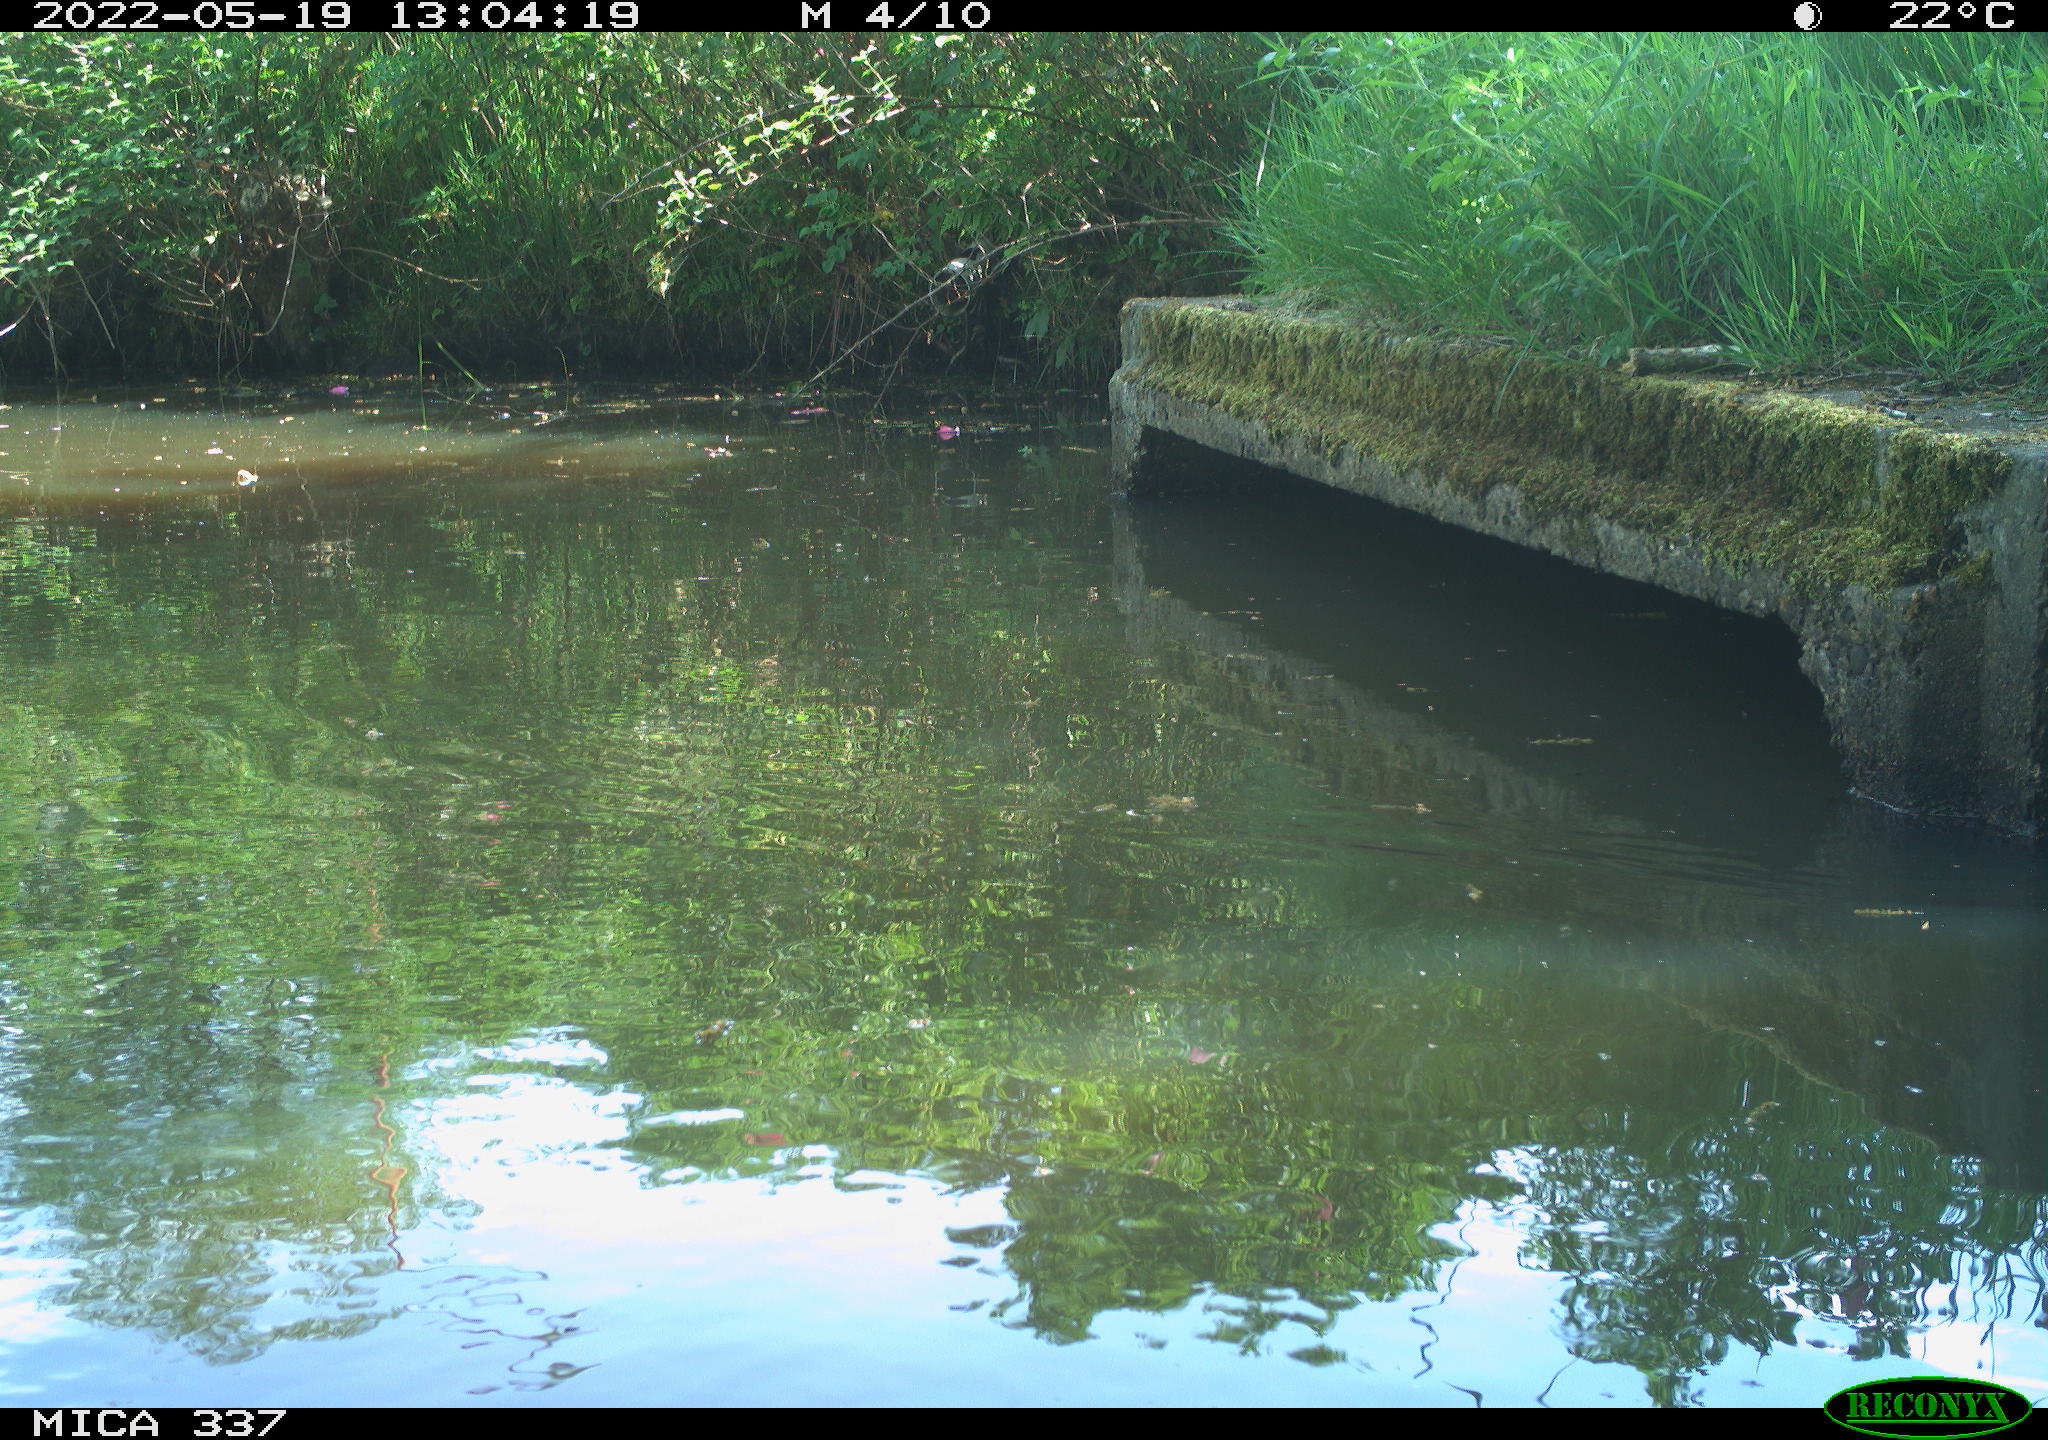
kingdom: Animalia
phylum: Chordata
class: Aves
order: Gruiformes
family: Rallidae
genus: Gallinula
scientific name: Gallinula chloropus
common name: Common moorhen
